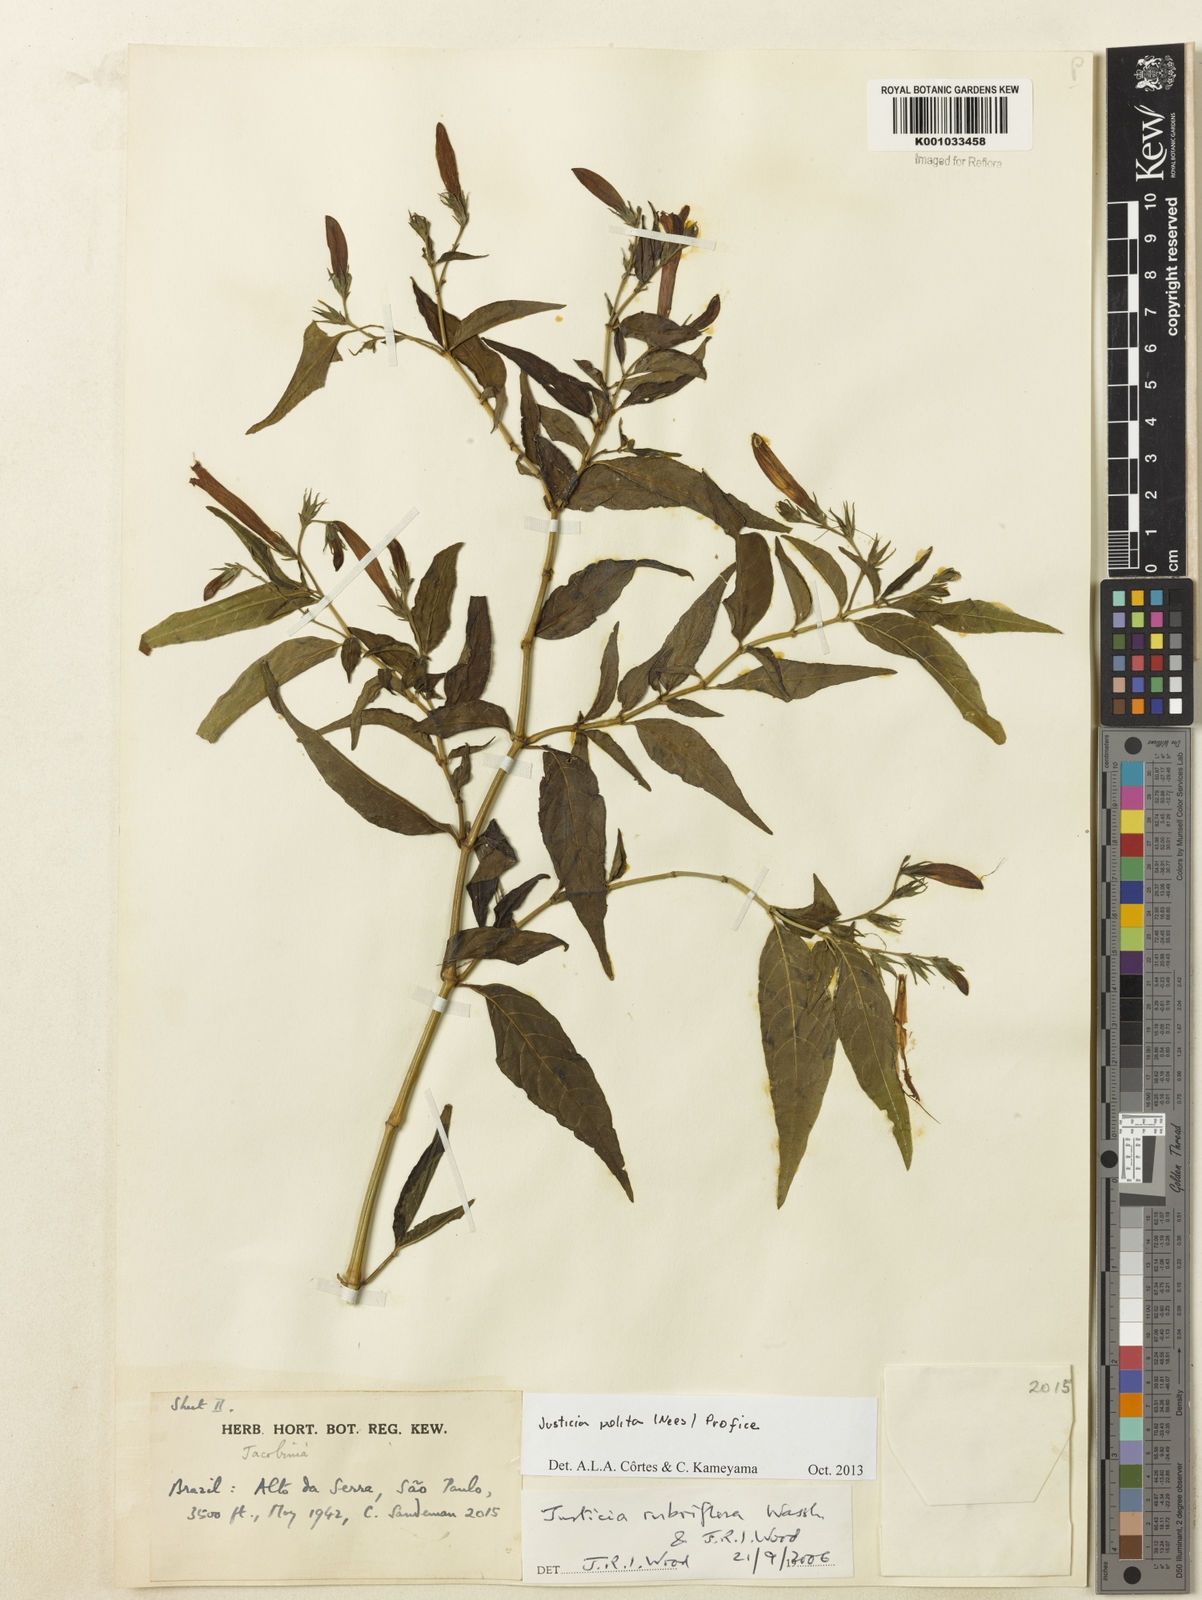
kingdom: Plantae
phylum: Tracheophyta
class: Magnoliopsida
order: Lamiales
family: Acanthaceae
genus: Justicia
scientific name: Justicia polita
